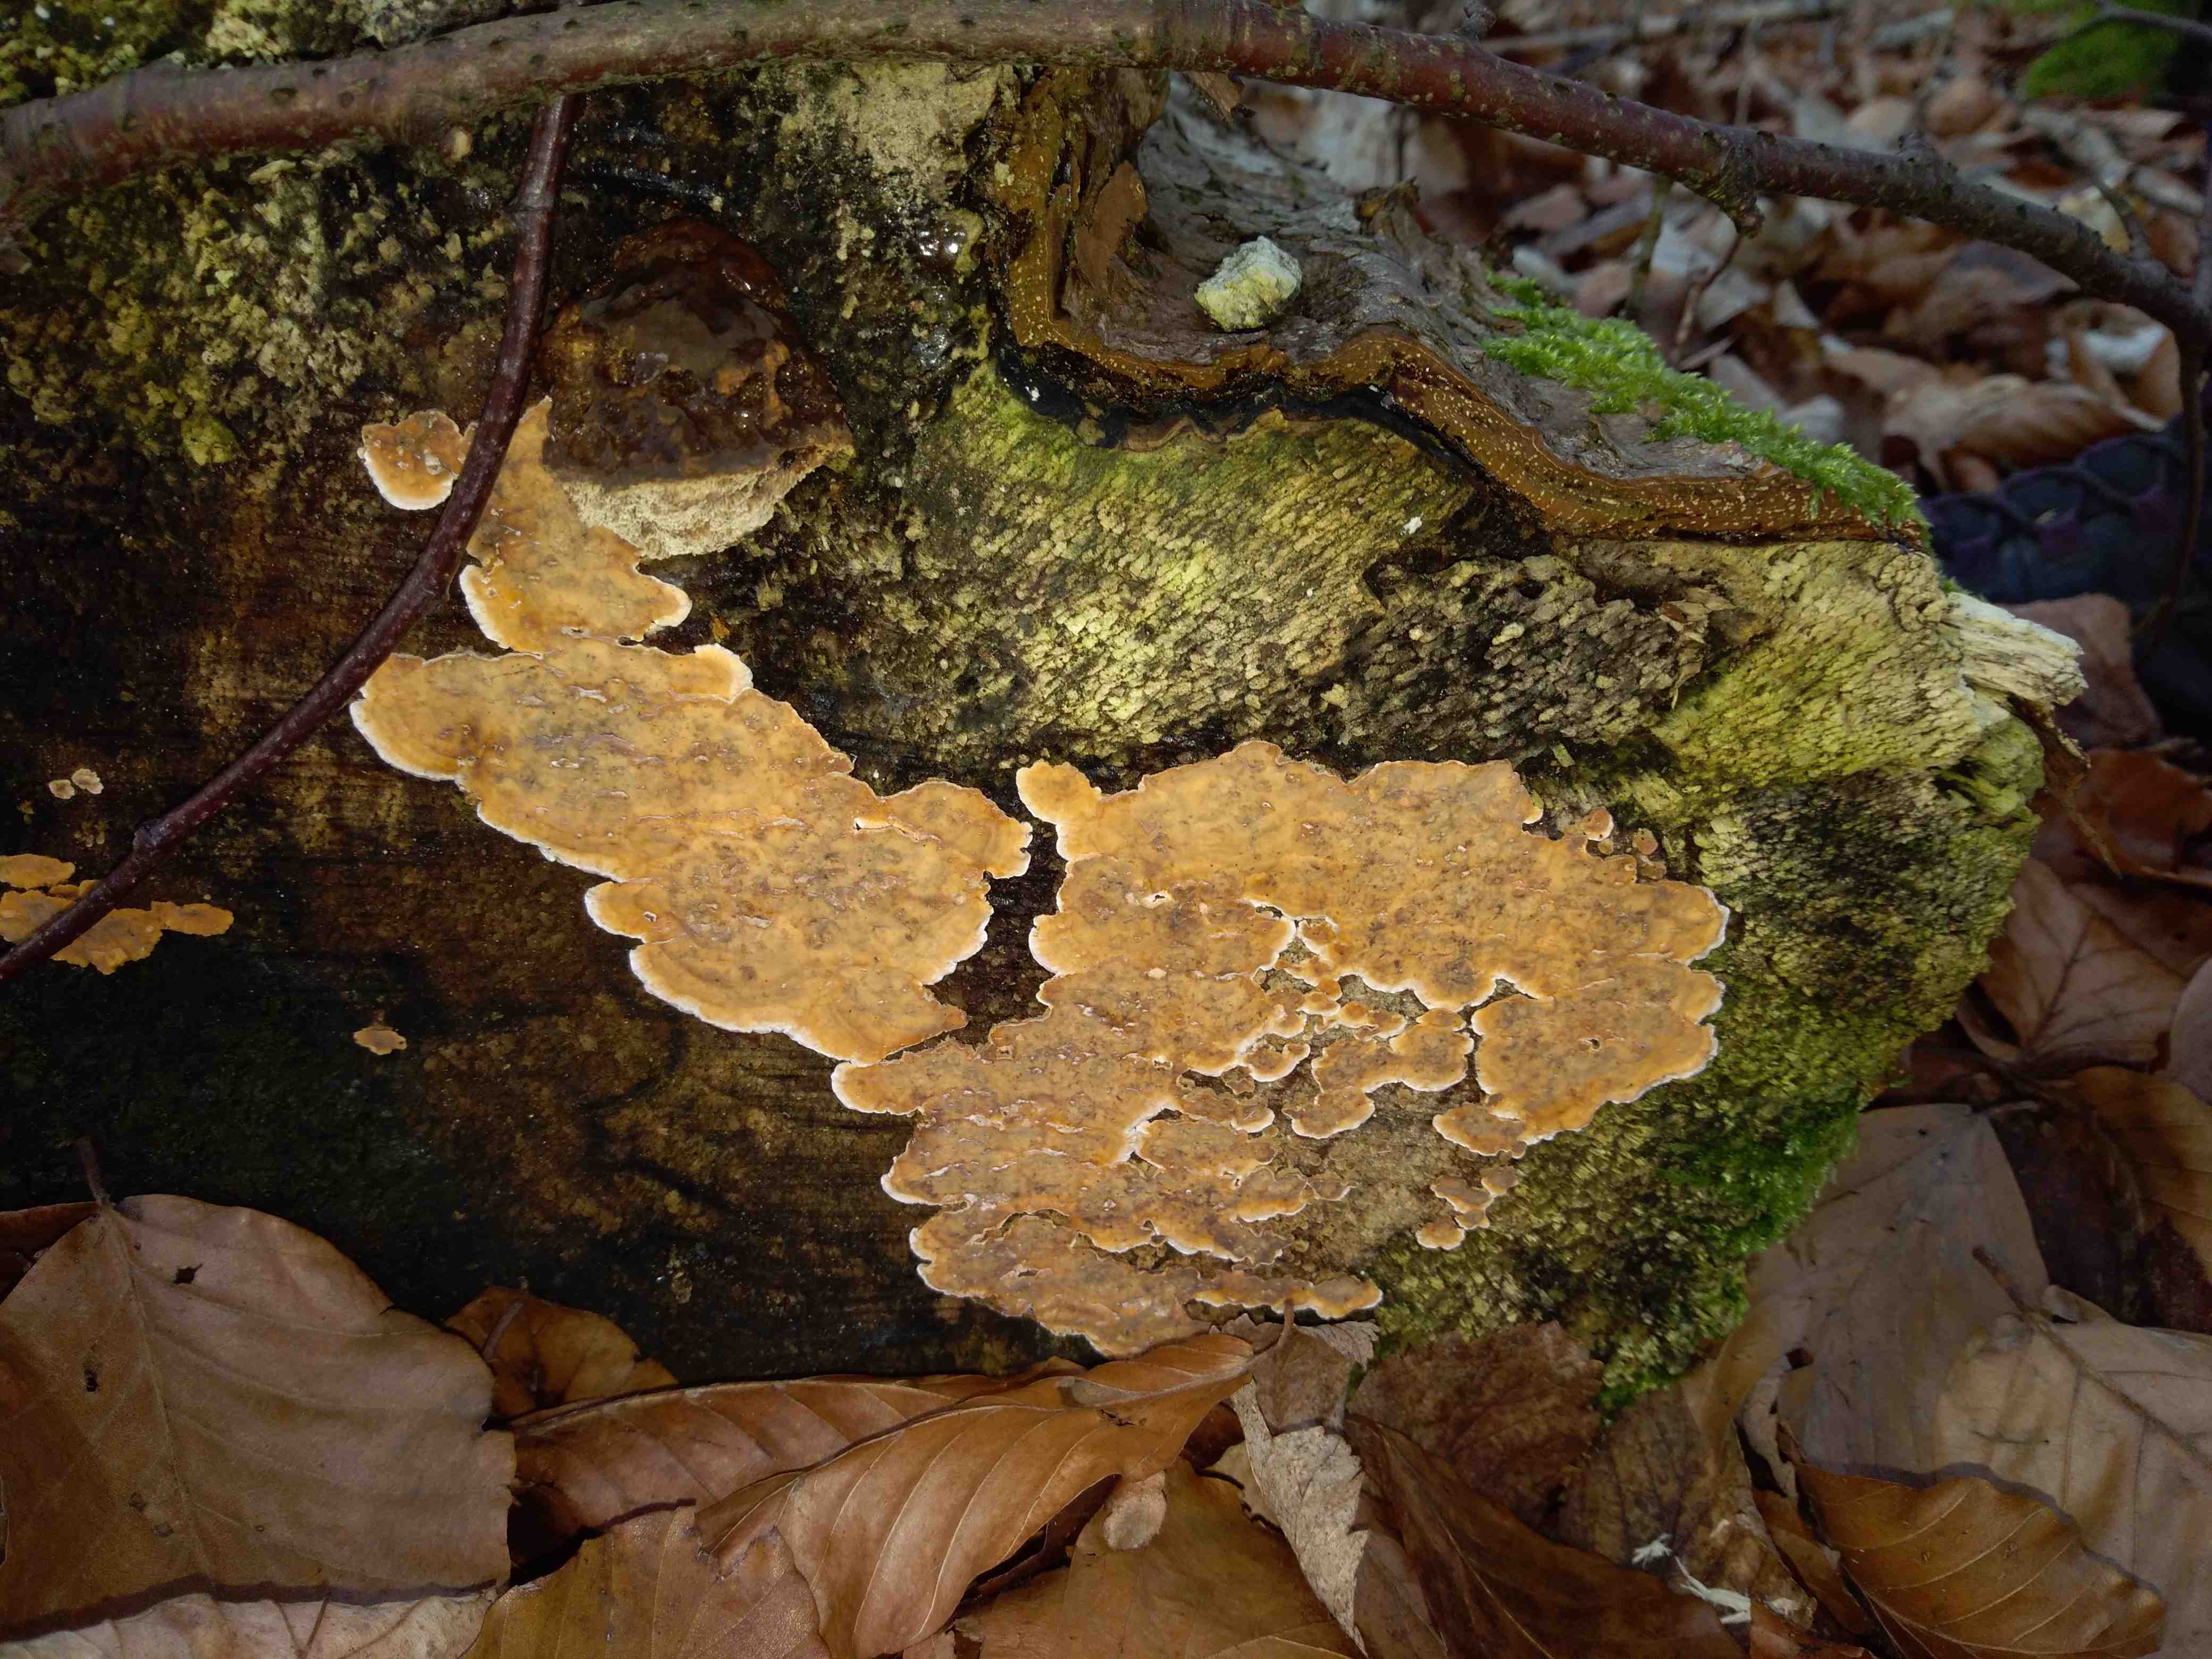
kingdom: Fungi
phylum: Basidiomycota
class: Agaricomycetes
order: Russulales
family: Stereaceae
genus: Stereum
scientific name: Stereum rugosum
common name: rynket lædersvamp
